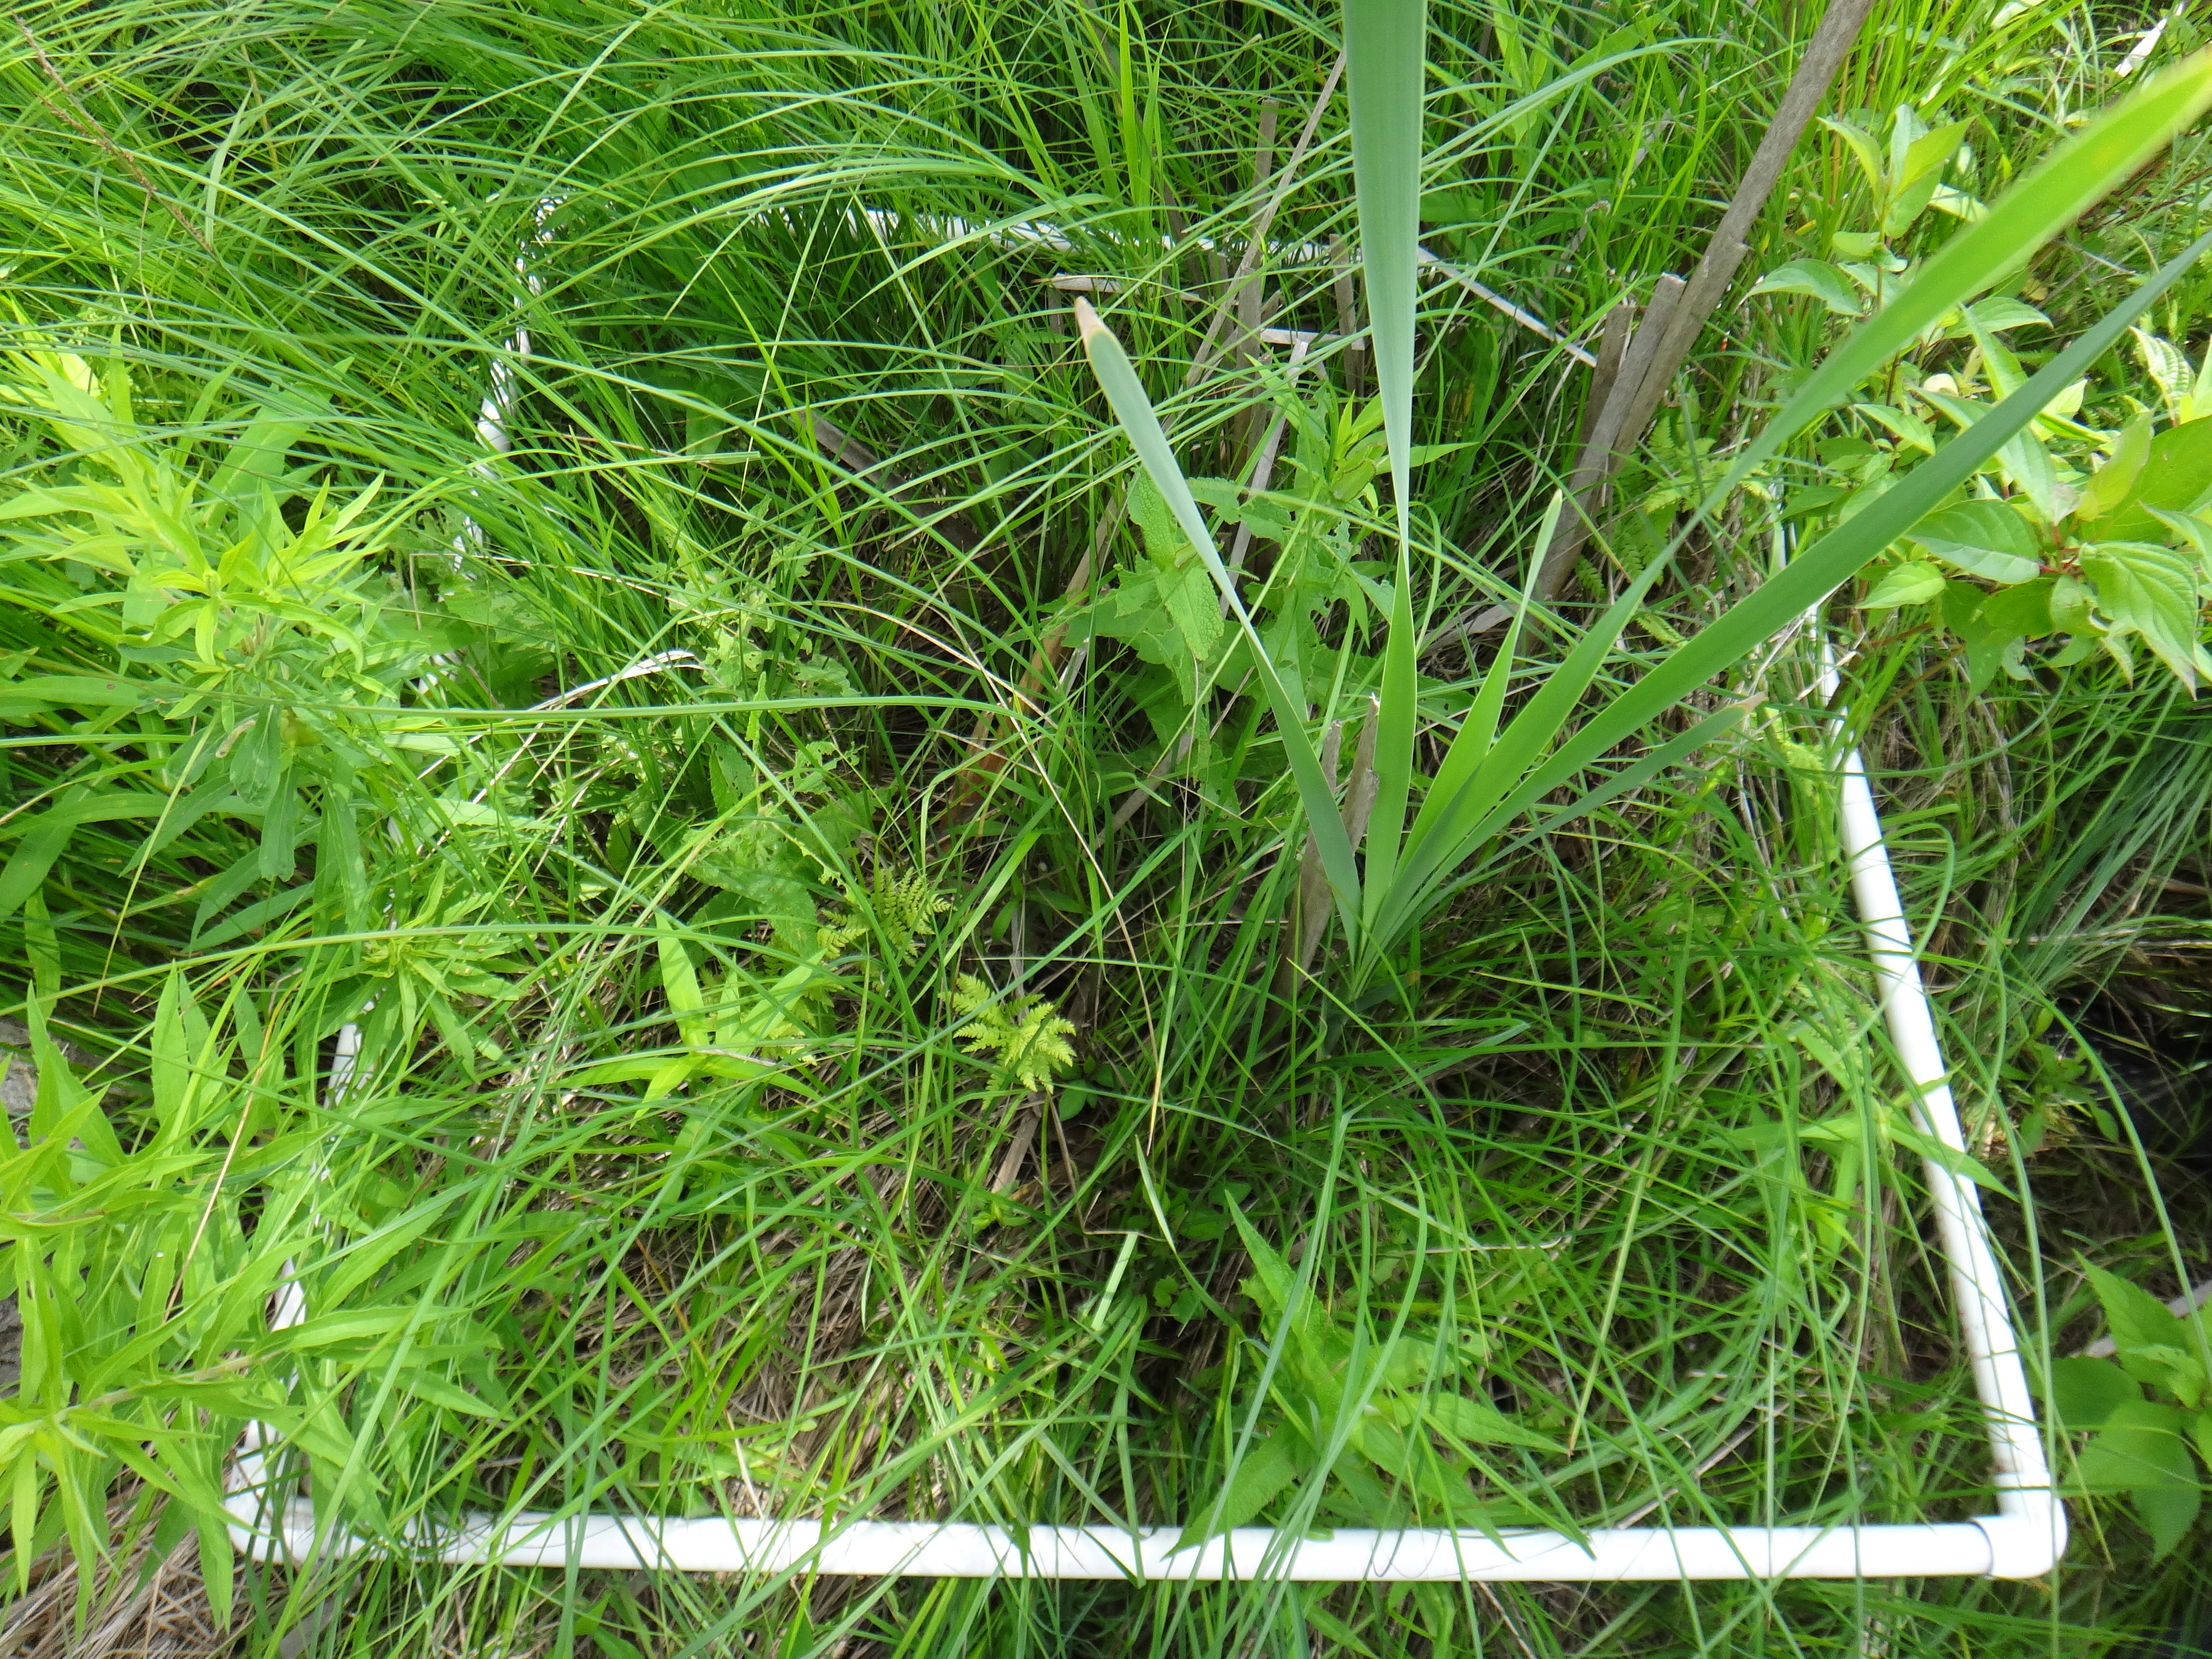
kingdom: Plantae
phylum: Tracheophyta
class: Magnoliopsida
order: Gentianales
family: Rubiaceae
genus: Galium
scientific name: Galium boreale
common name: Northern bedstraw
